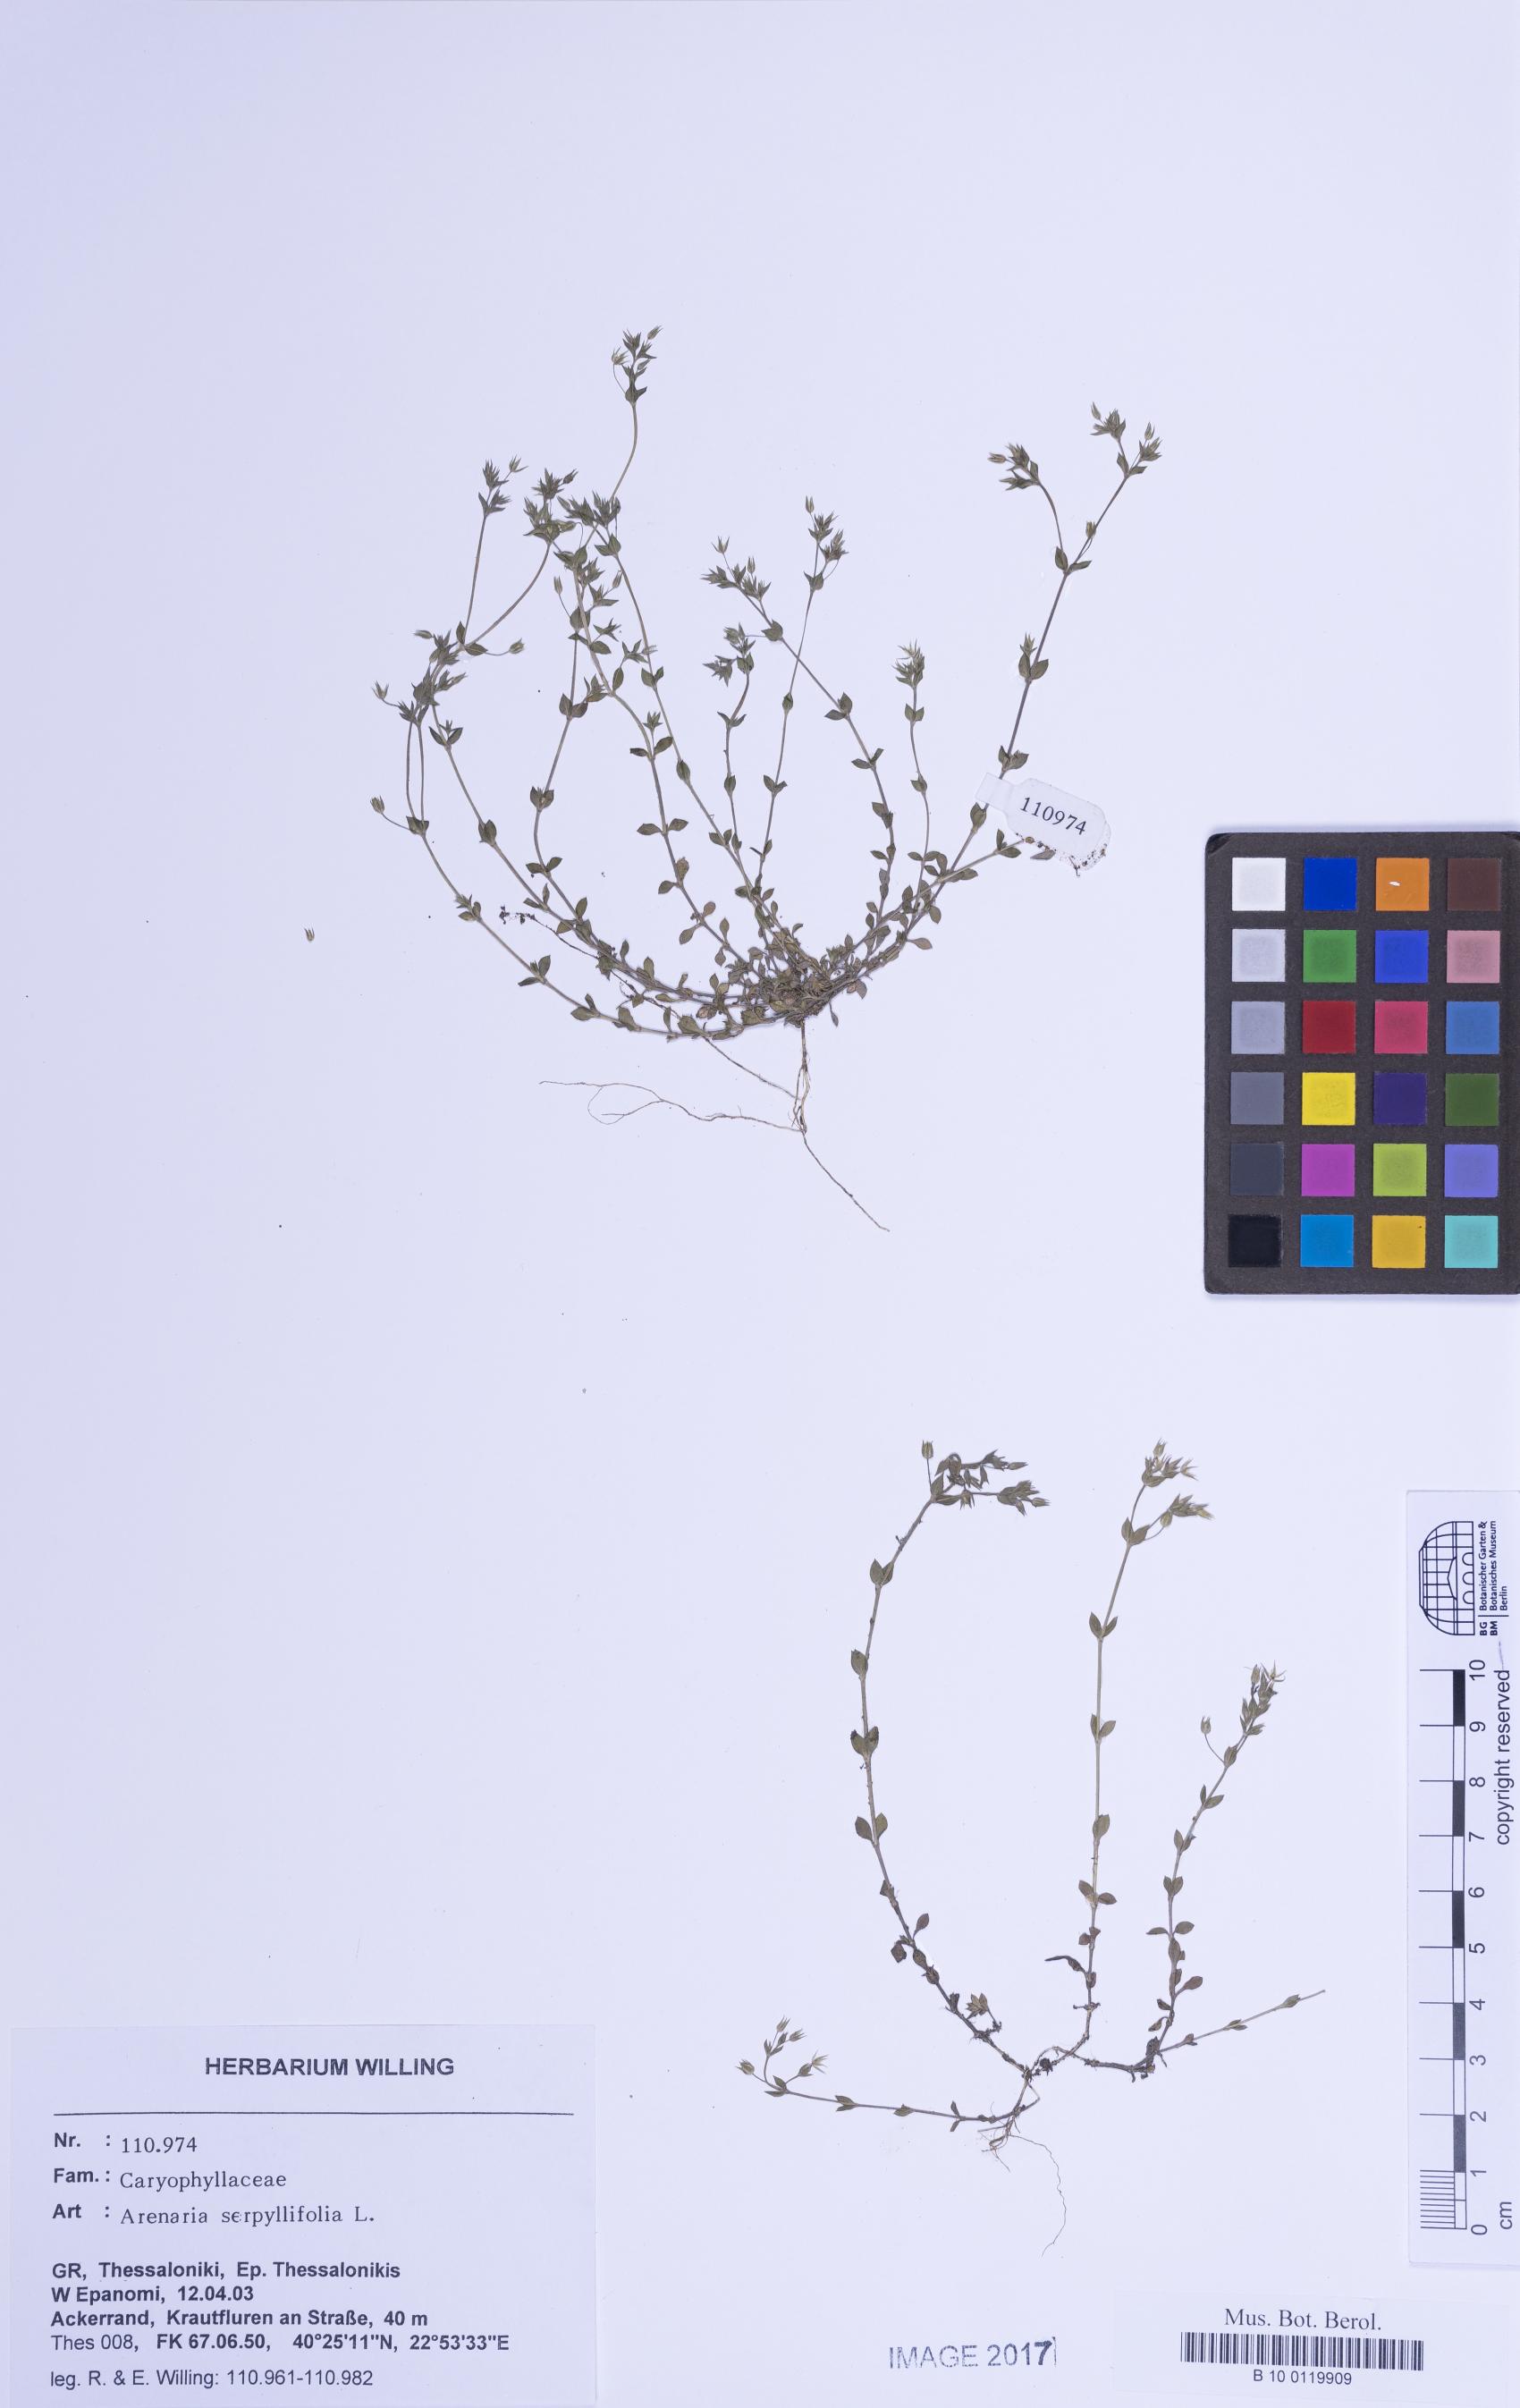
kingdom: Plantae
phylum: Tracheophyta
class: Magnoliopsida
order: Caryophyllales
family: Caryophyllaceae
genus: Arenaria
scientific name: Arenaria serpyllifolia
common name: Thyme-leaved sandwort
